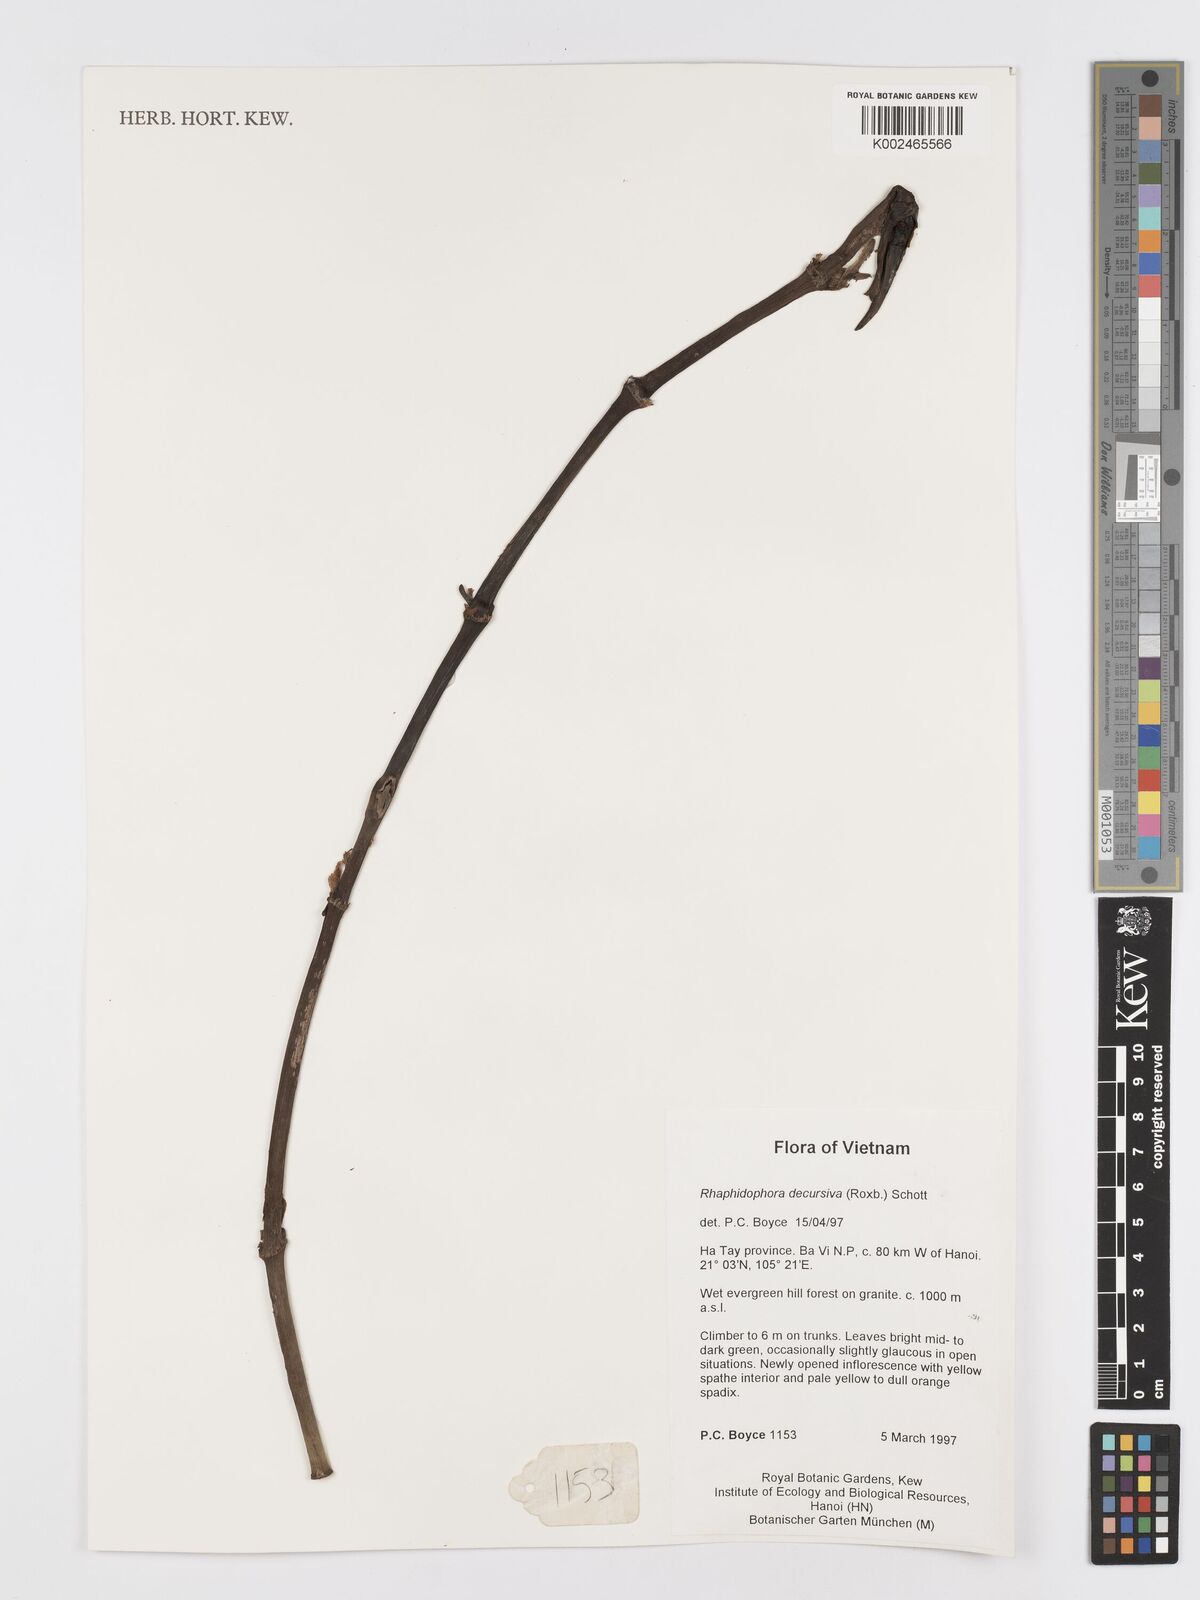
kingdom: Plantae
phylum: Tracheophyta
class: Liliopsida
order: Alismatales
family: Araceae
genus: Rhaphidophora
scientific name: Rhaphidophora decursiva
